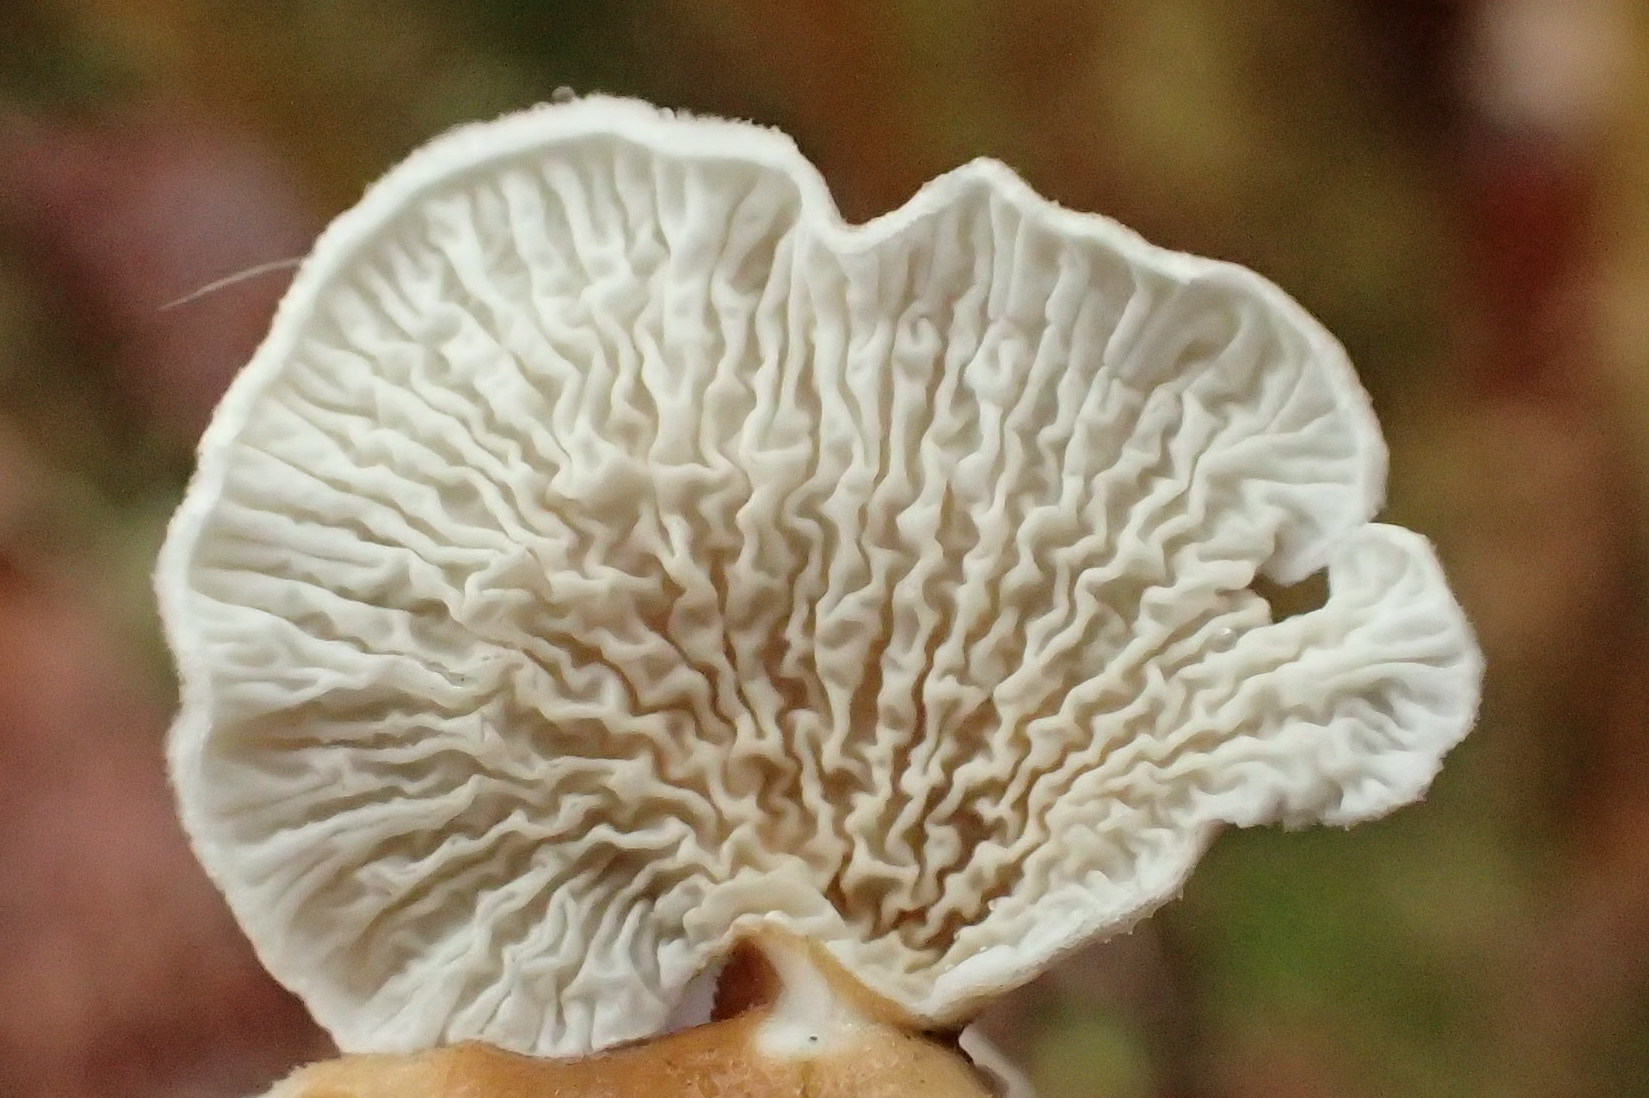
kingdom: Fungi
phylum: Basidiomycota
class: Agaricomycetes
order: Amylocorticiales
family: Amylocorticiaceae
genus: Plicaturopsis
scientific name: Plicaturopsis crispa
